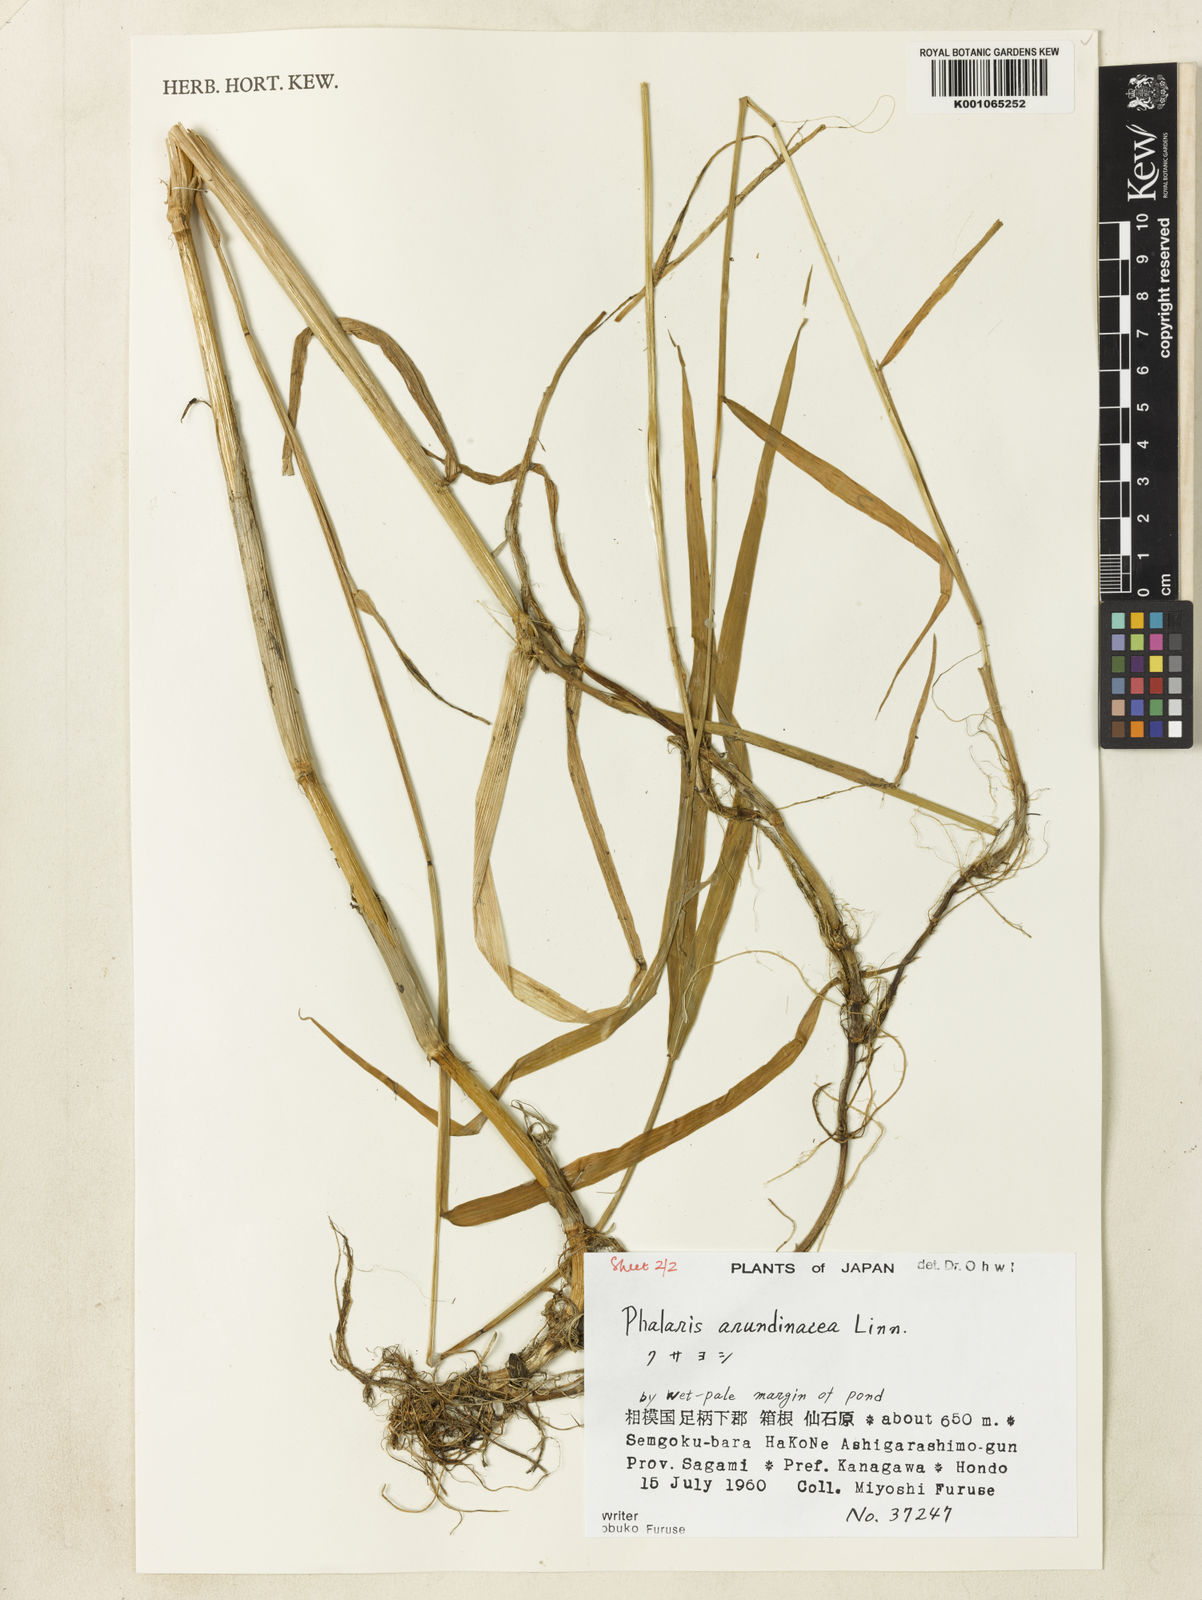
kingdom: Plantae
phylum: Tracheophyta
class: Liliopsida
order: Poales
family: Poaceae
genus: Phalaris
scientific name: Phalaris arundinacea
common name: Reed canary-grass
